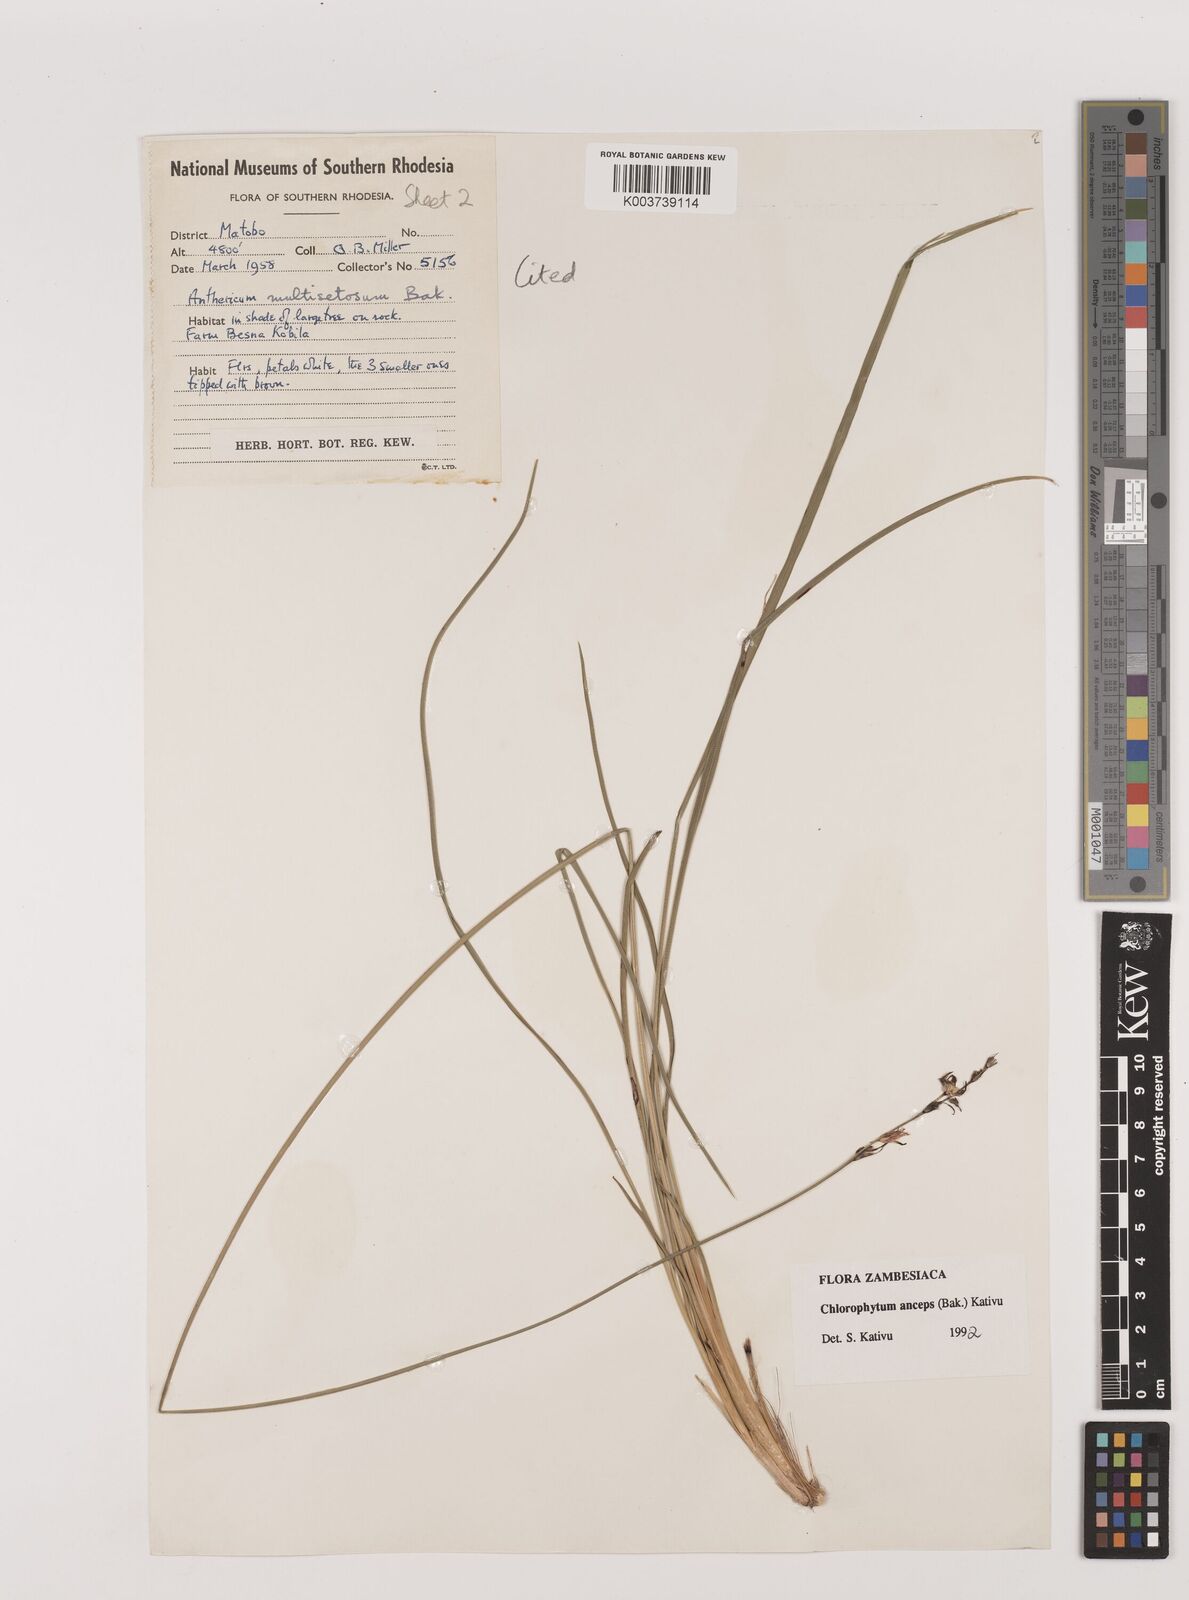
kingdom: Plantae
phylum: Tracheophyta
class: Liliopsida
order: Asparagales
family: Asparagaceae
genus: Chlorophytum
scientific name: Chlorophytum anceps
